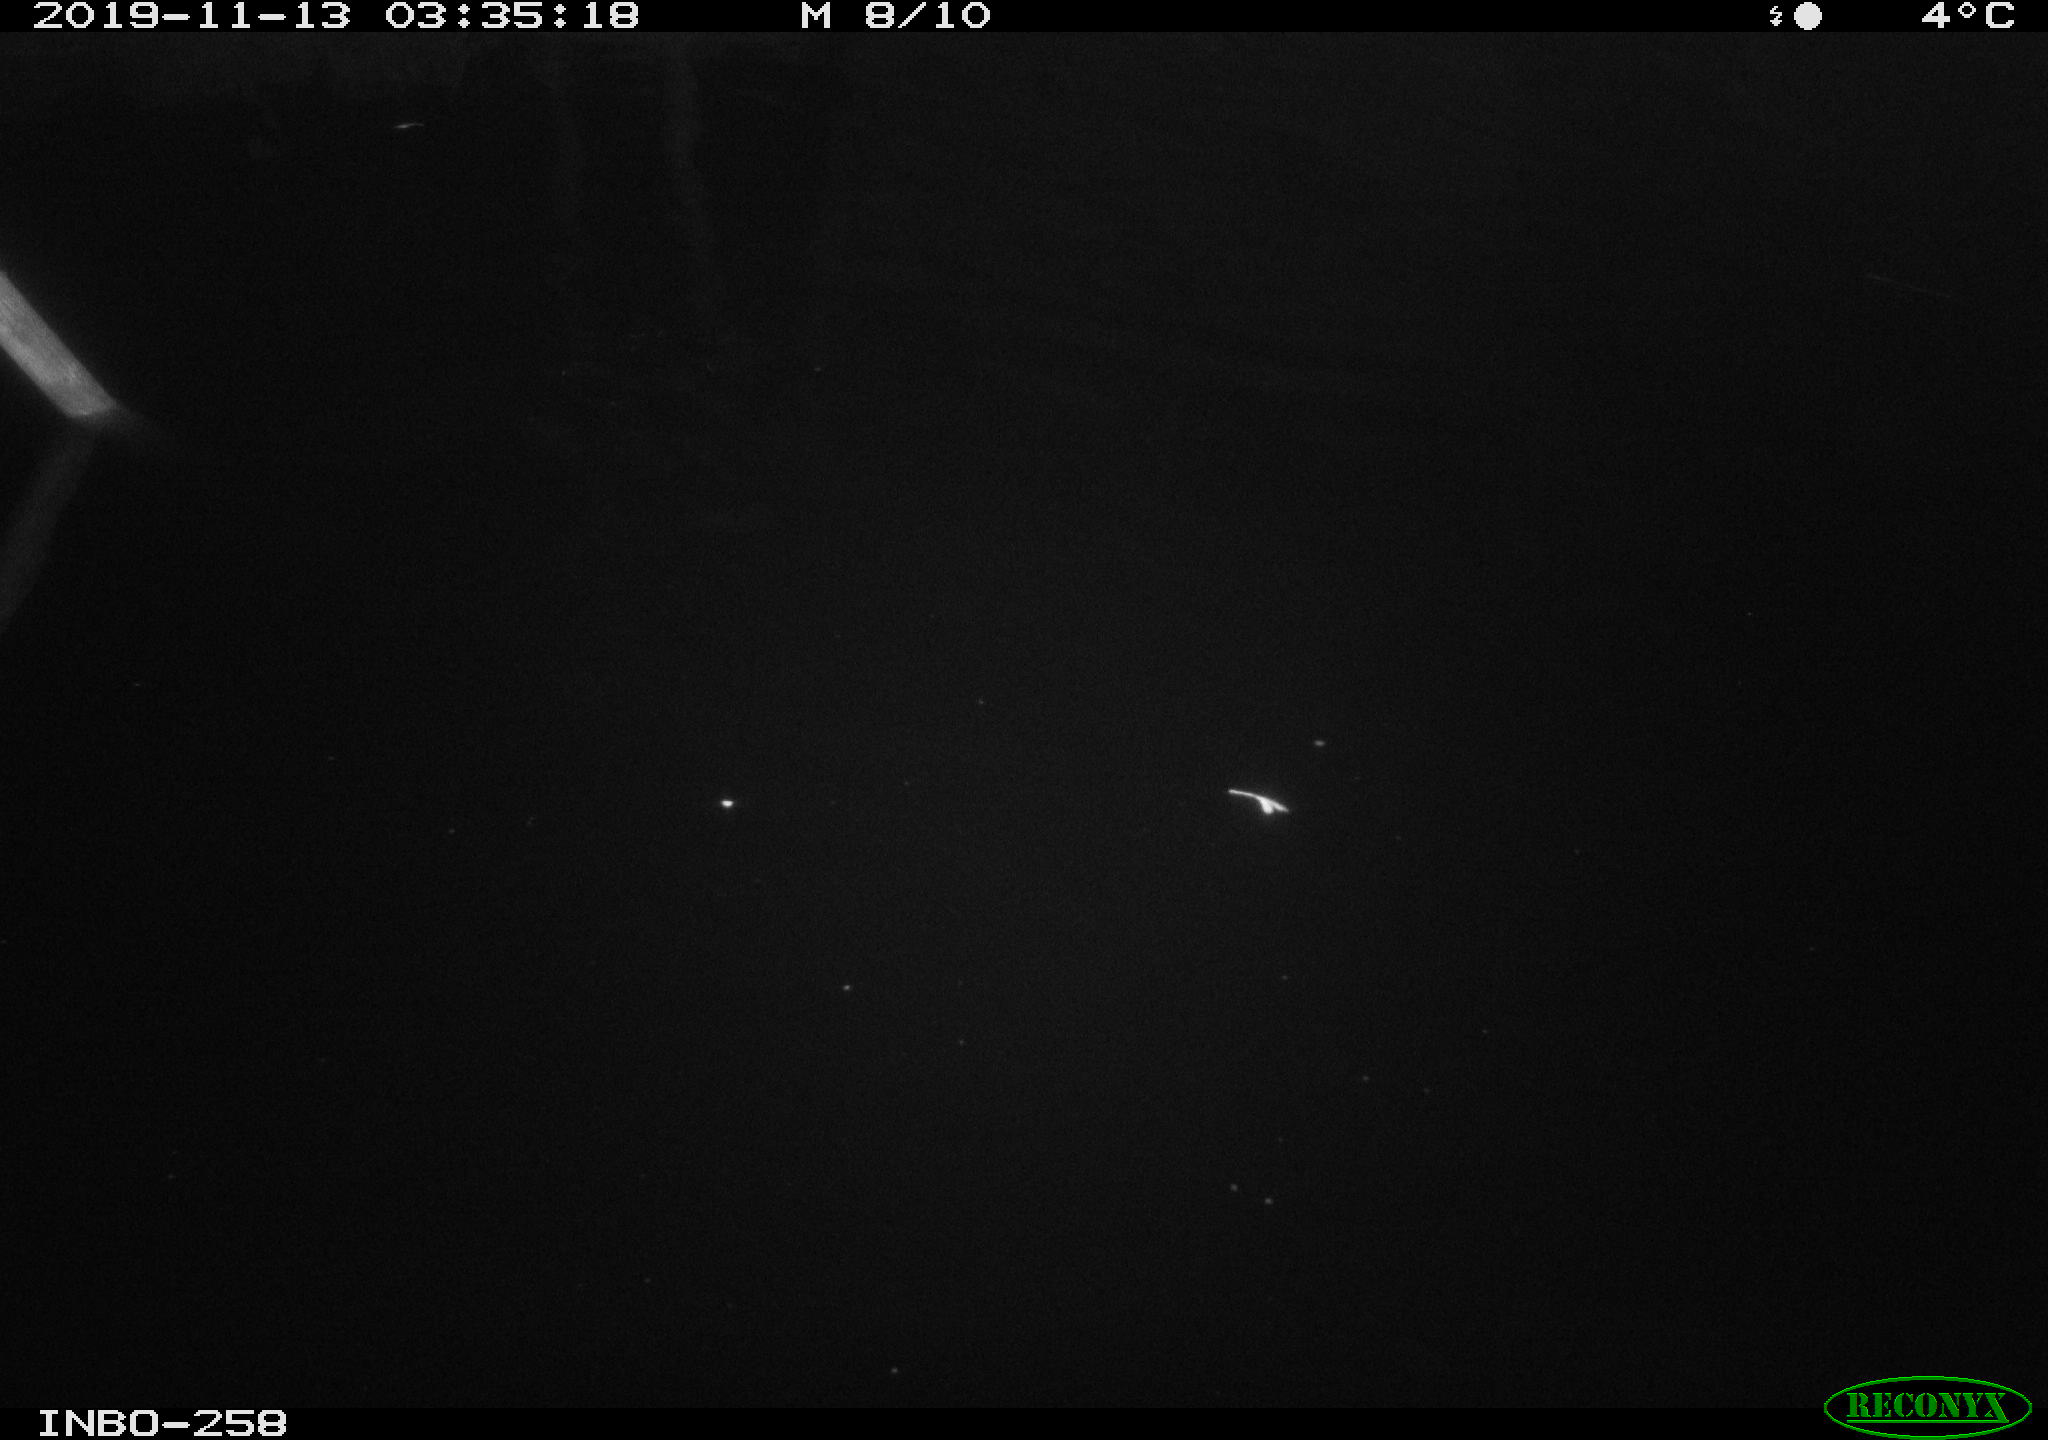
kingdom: Animalia
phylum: Chordata
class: Mammalia
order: Rodentia
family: Muridae
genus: Rattus
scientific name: Rattus norvegicus
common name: Brown rat
